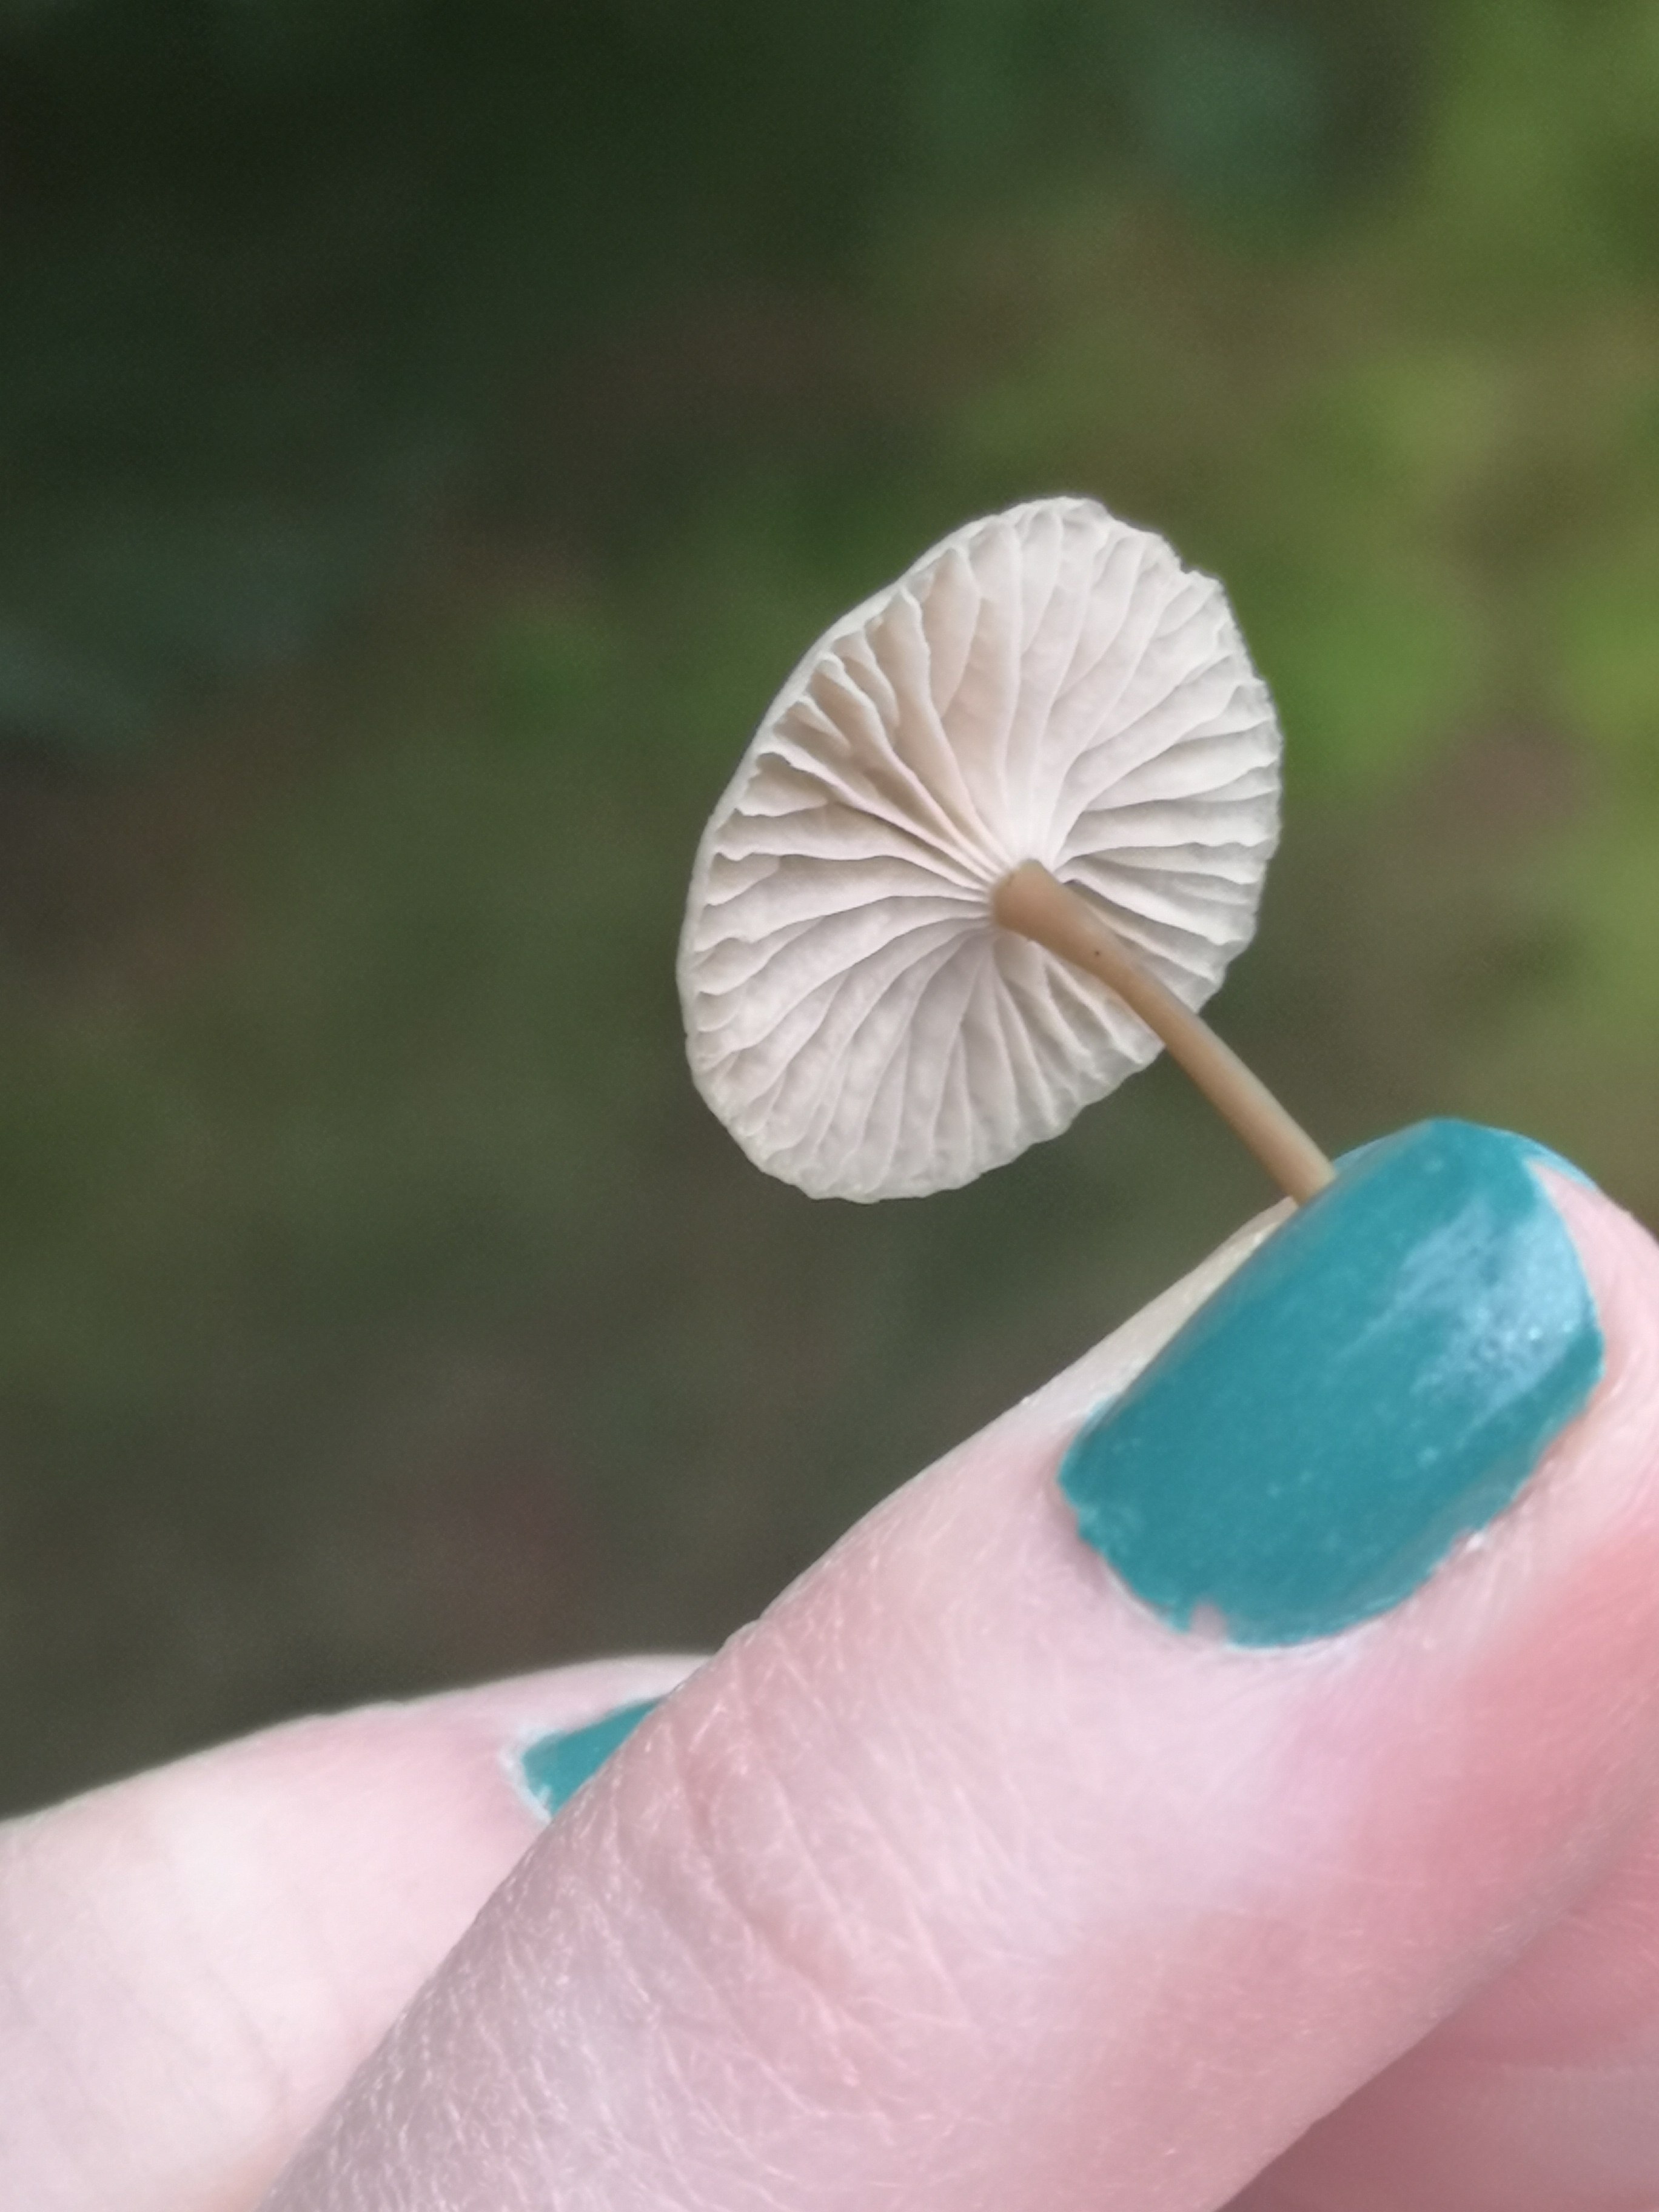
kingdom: Fungi
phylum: Basidiomycota
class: Agaricomycetes
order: Agaricales
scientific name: Agaricales
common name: champignonordenen
